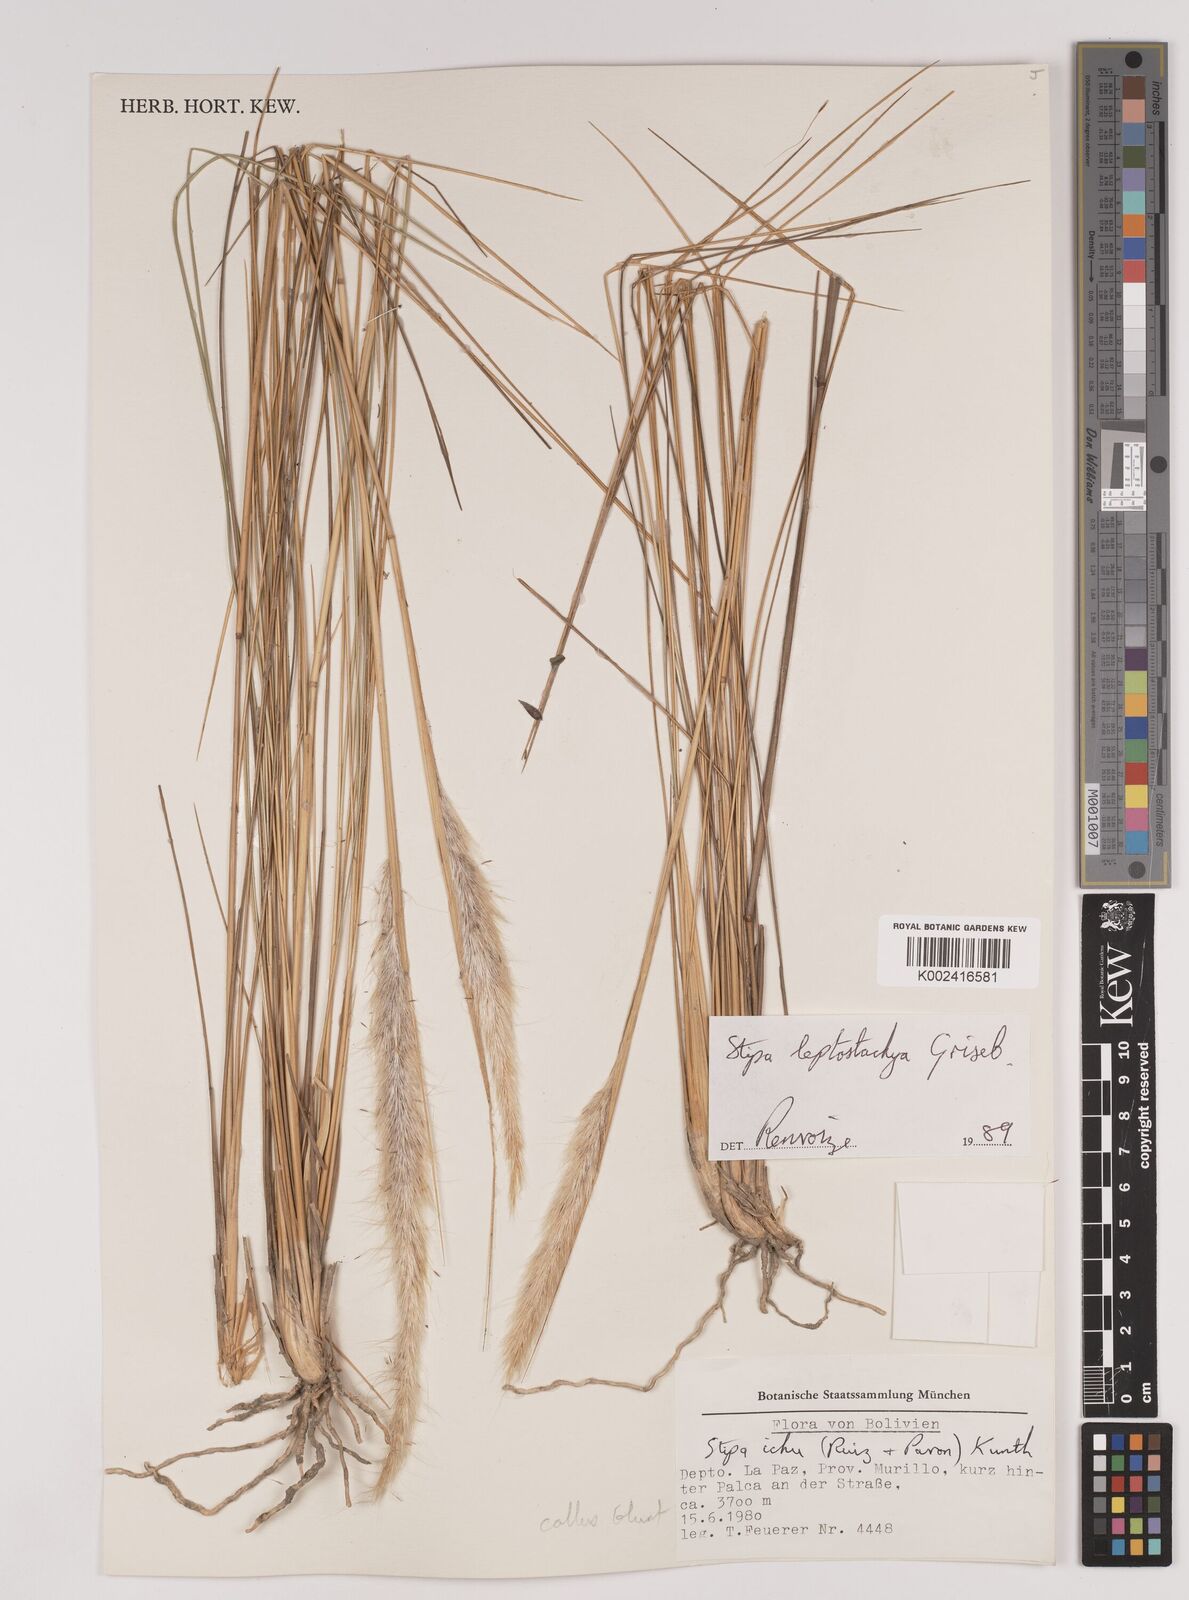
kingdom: Plantae
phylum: Tracheophyta
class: Liliopsida
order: Poales
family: Poaceae
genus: Jarava
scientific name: Jarava leptostachya
